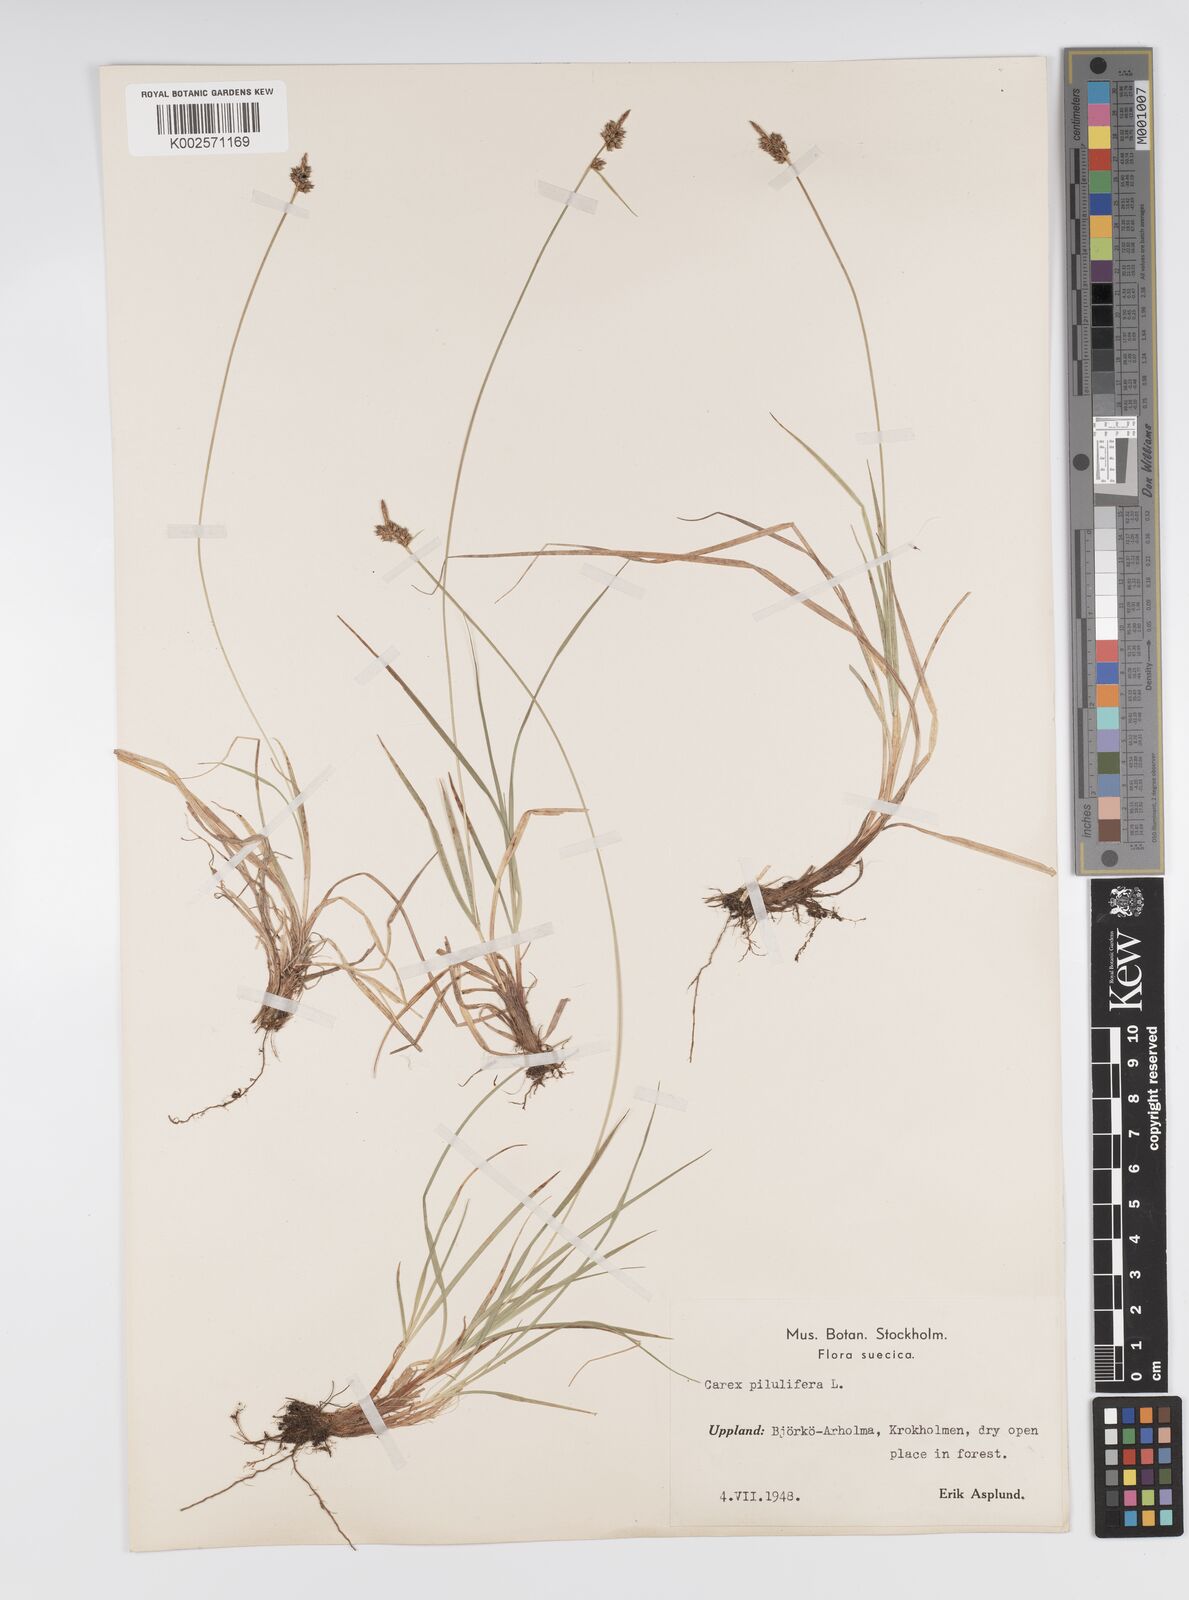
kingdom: Plantae
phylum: Tracheophyta
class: Liliopsida
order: Poales
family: Cyperaceae
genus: Carex
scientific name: Carex pilulifera
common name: Pill sedge
